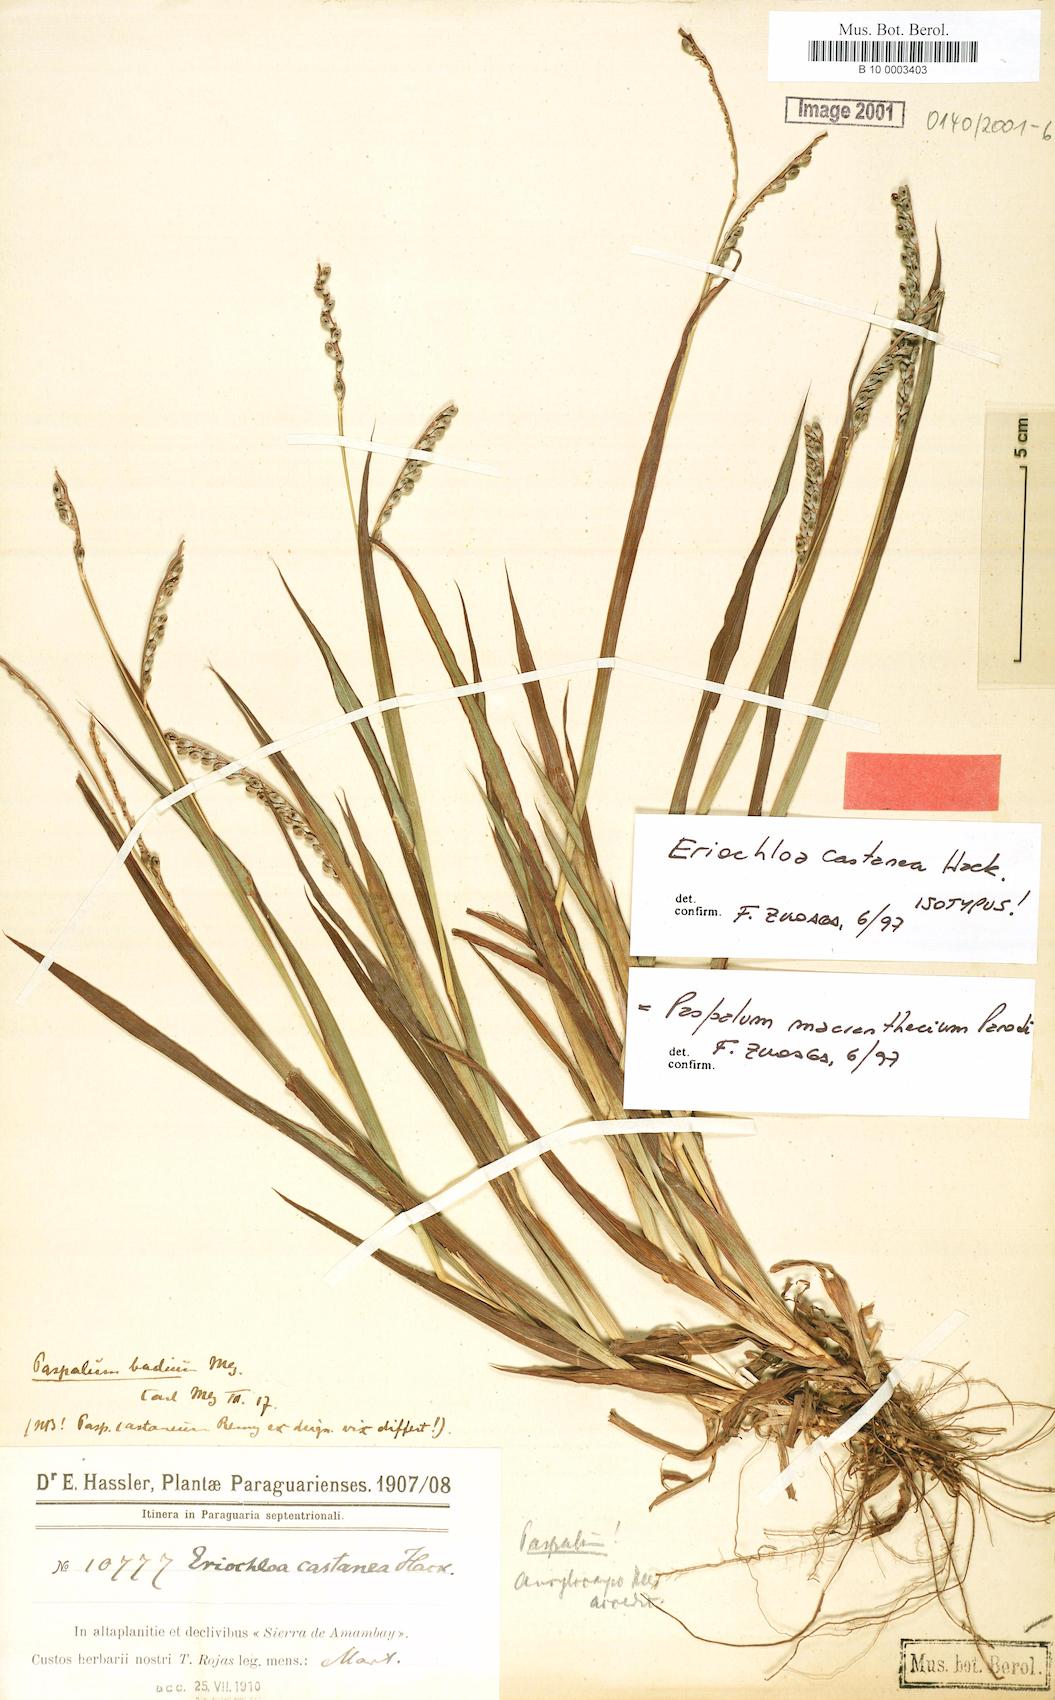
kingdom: Plantae
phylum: Tracheophyta
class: Liliopsida
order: Poales
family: Poaceae
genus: Paspalum
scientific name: Paspalum macranthecium
